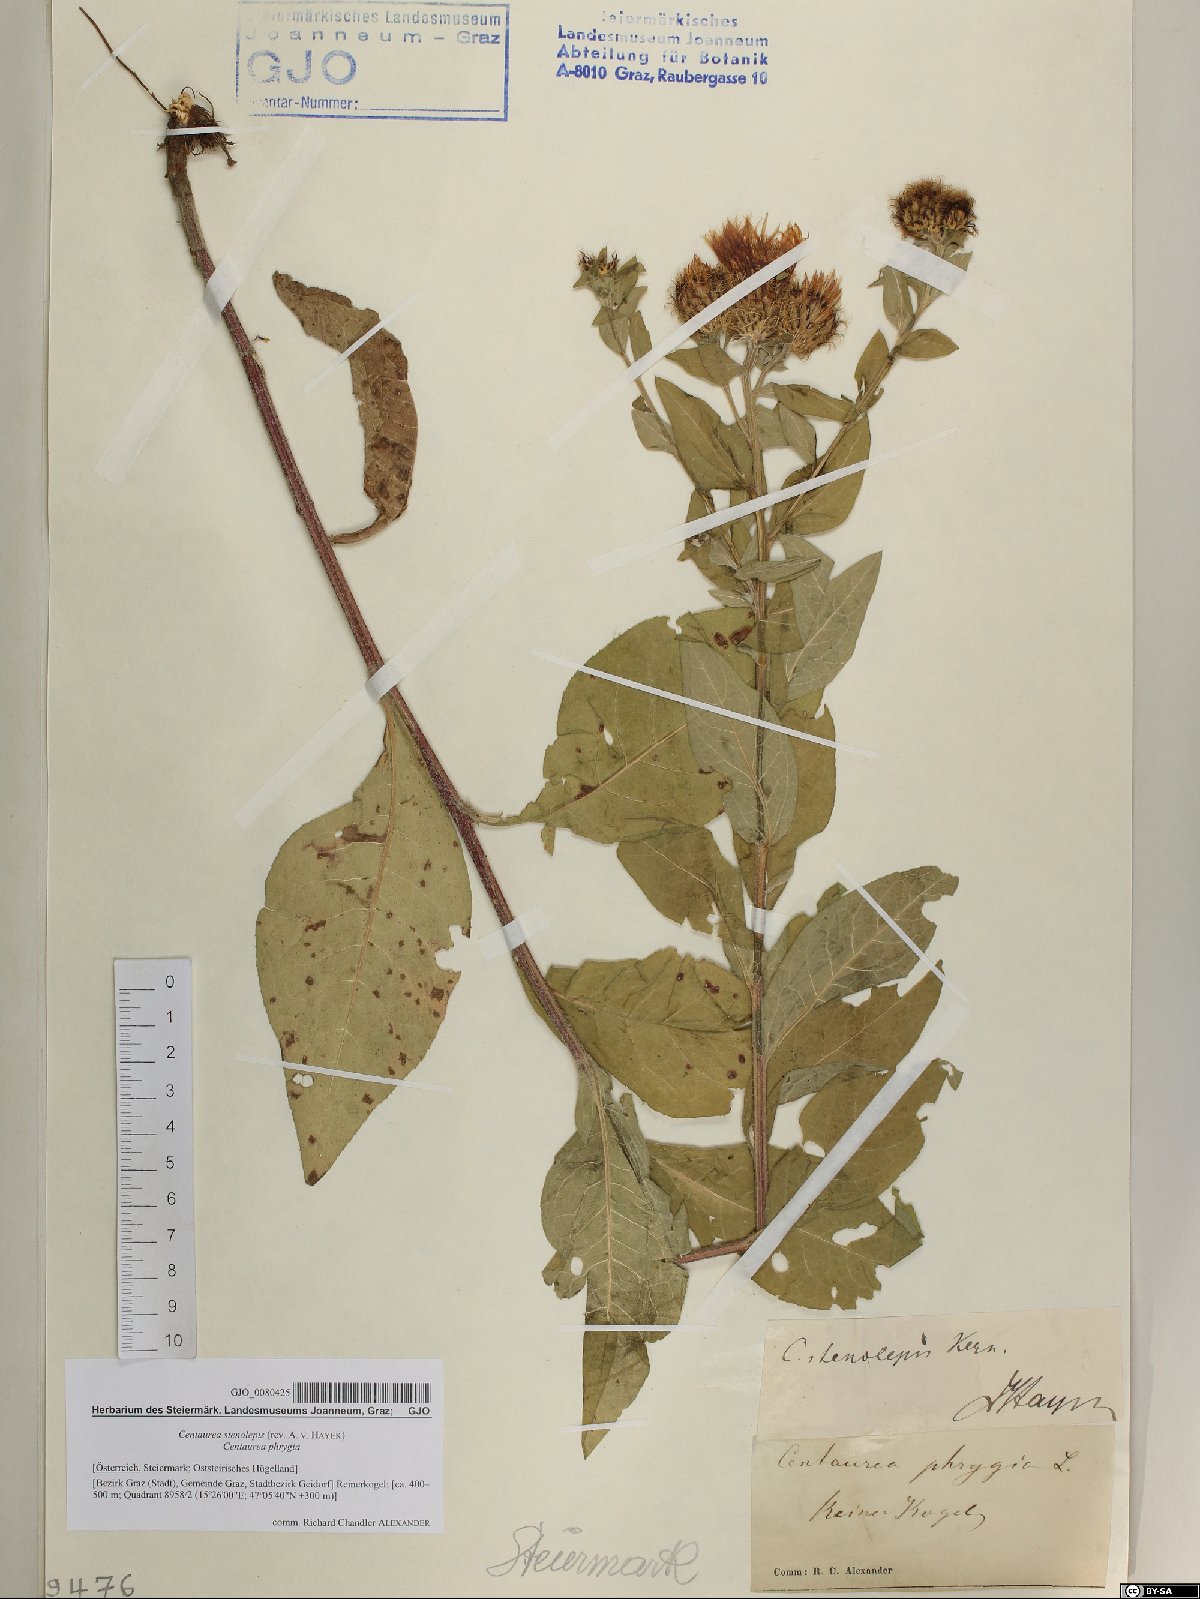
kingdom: Plantae
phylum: Tracheophyta
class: Magnoliopsida
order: Asterales
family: Asteraceae
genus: Centaurea
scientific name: Centaurea stenolepis
